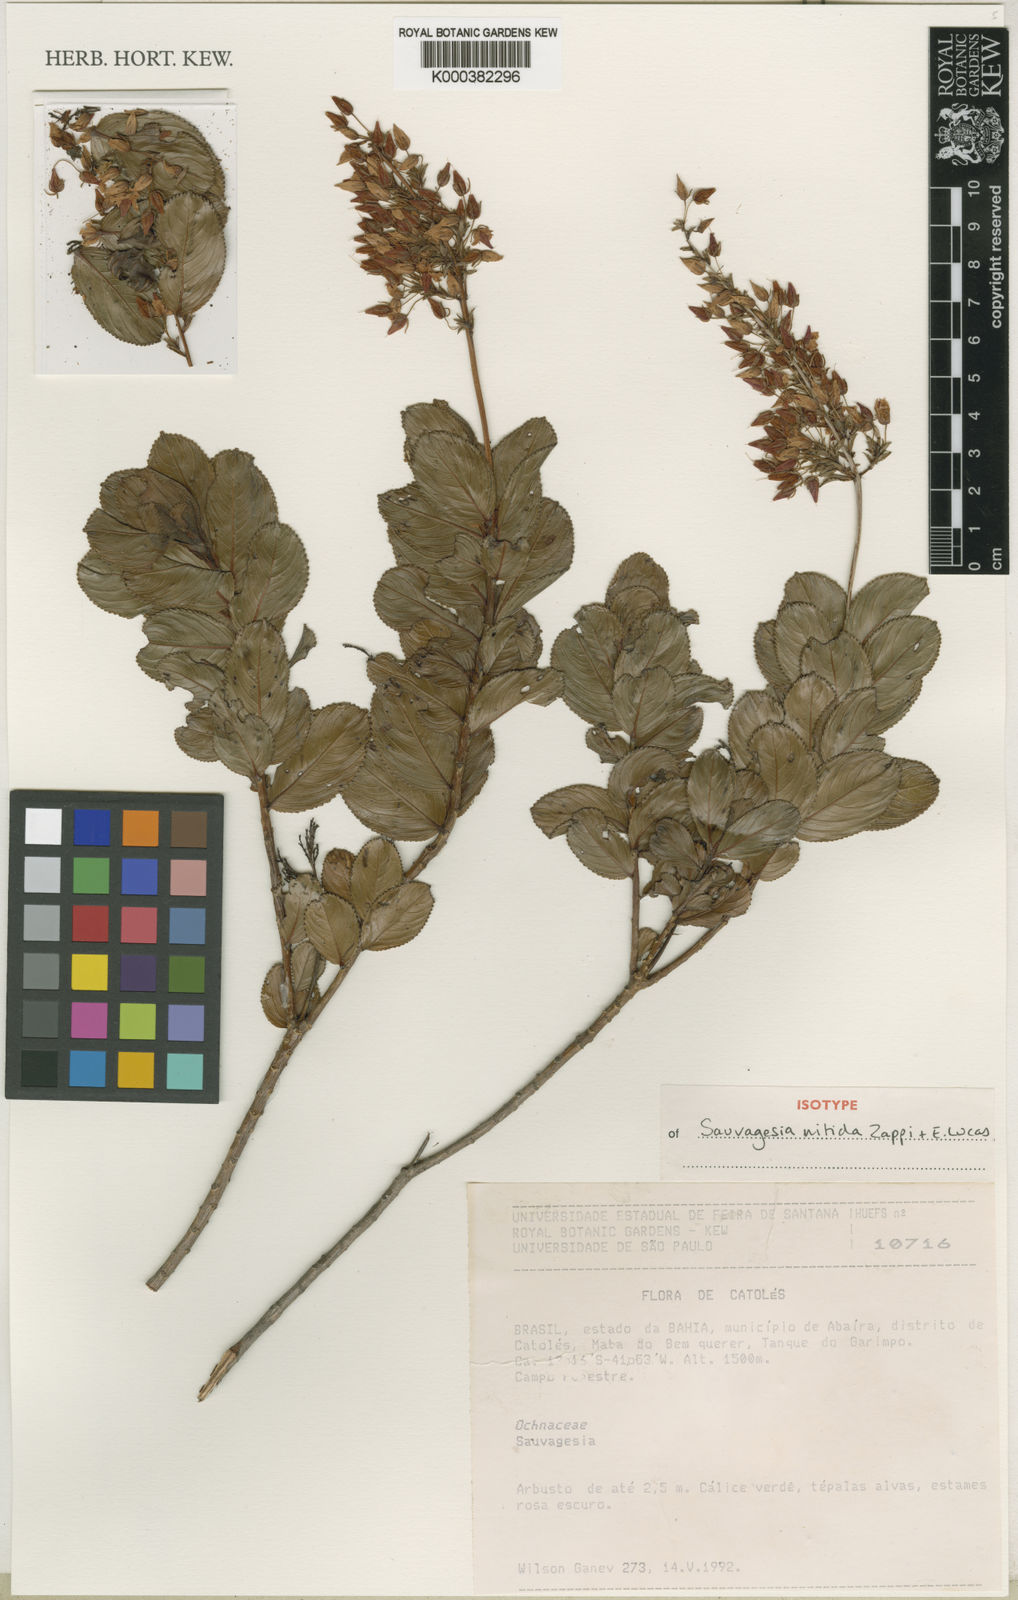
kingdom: Plantae
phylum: Tracheophyta
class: Magnoliopsida
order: Malpighiales
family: Ochnaceae
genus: Sauvagesia
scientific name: Sauvagesia nitida
